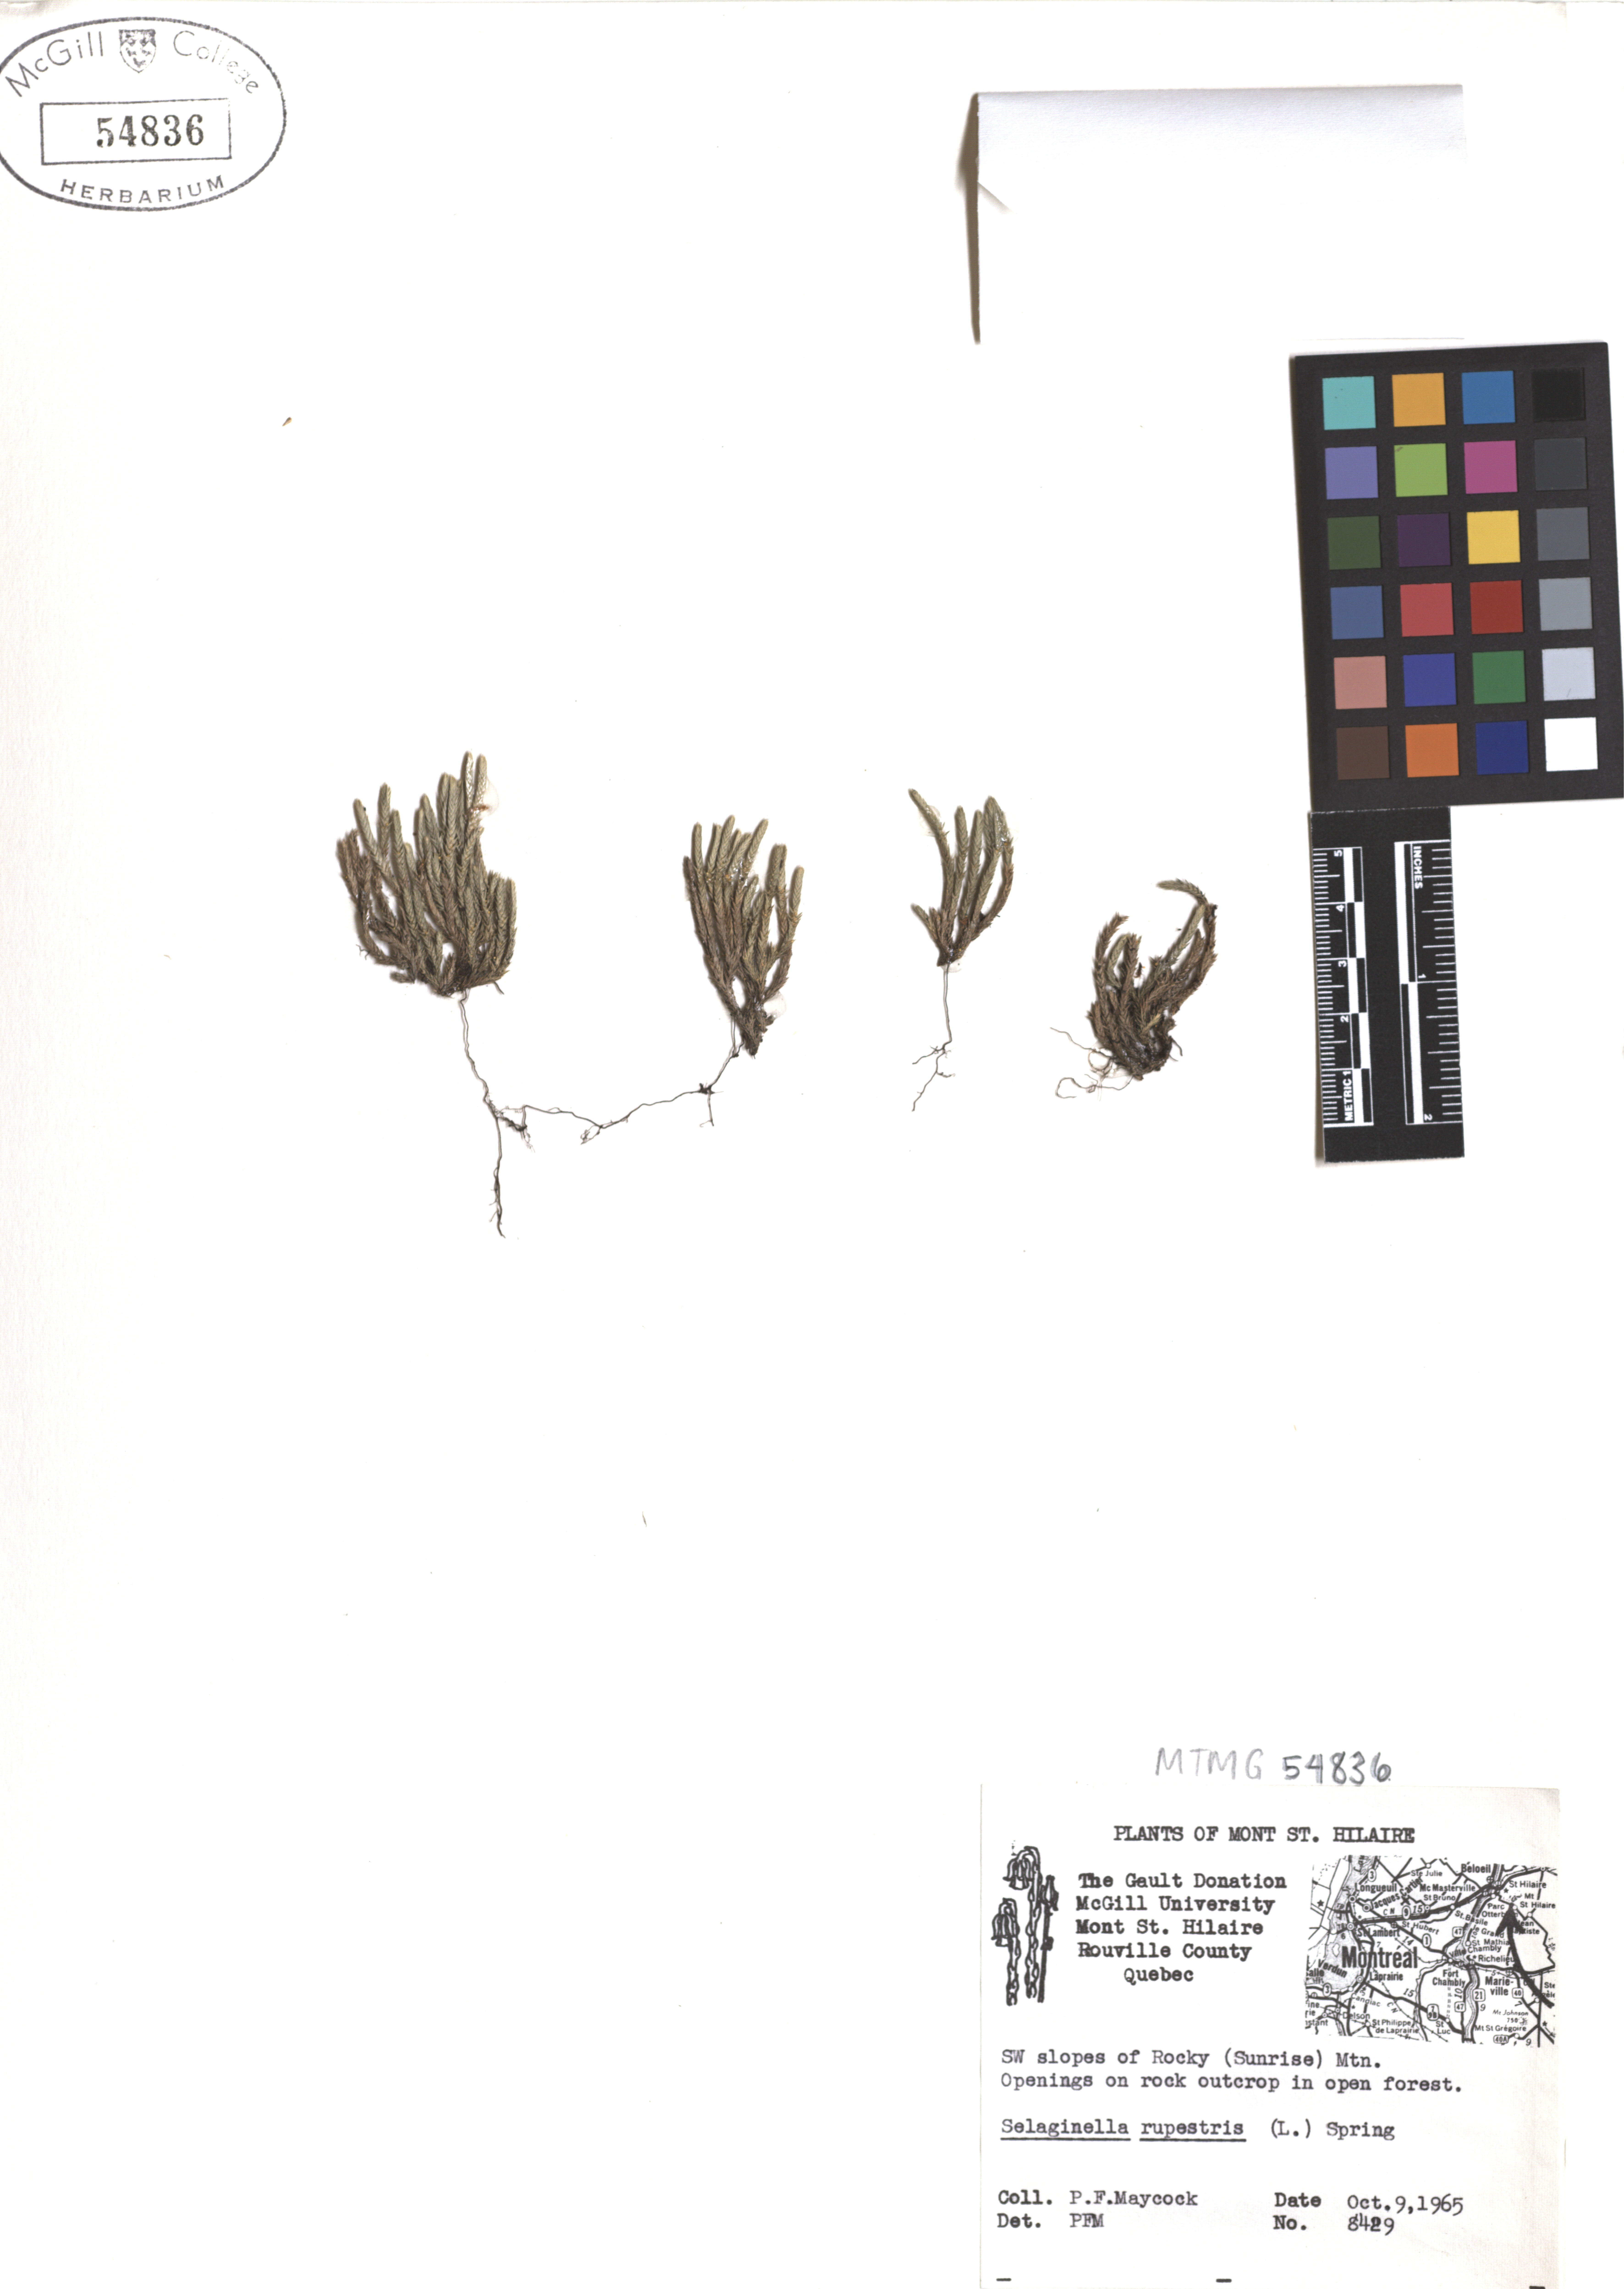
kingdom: Plantae
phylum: Tracheophyta
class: Lycopodiopsida
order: Selaginellales
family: Selaginellaceae
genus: Selaginella
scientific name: Selaginella sellowii
